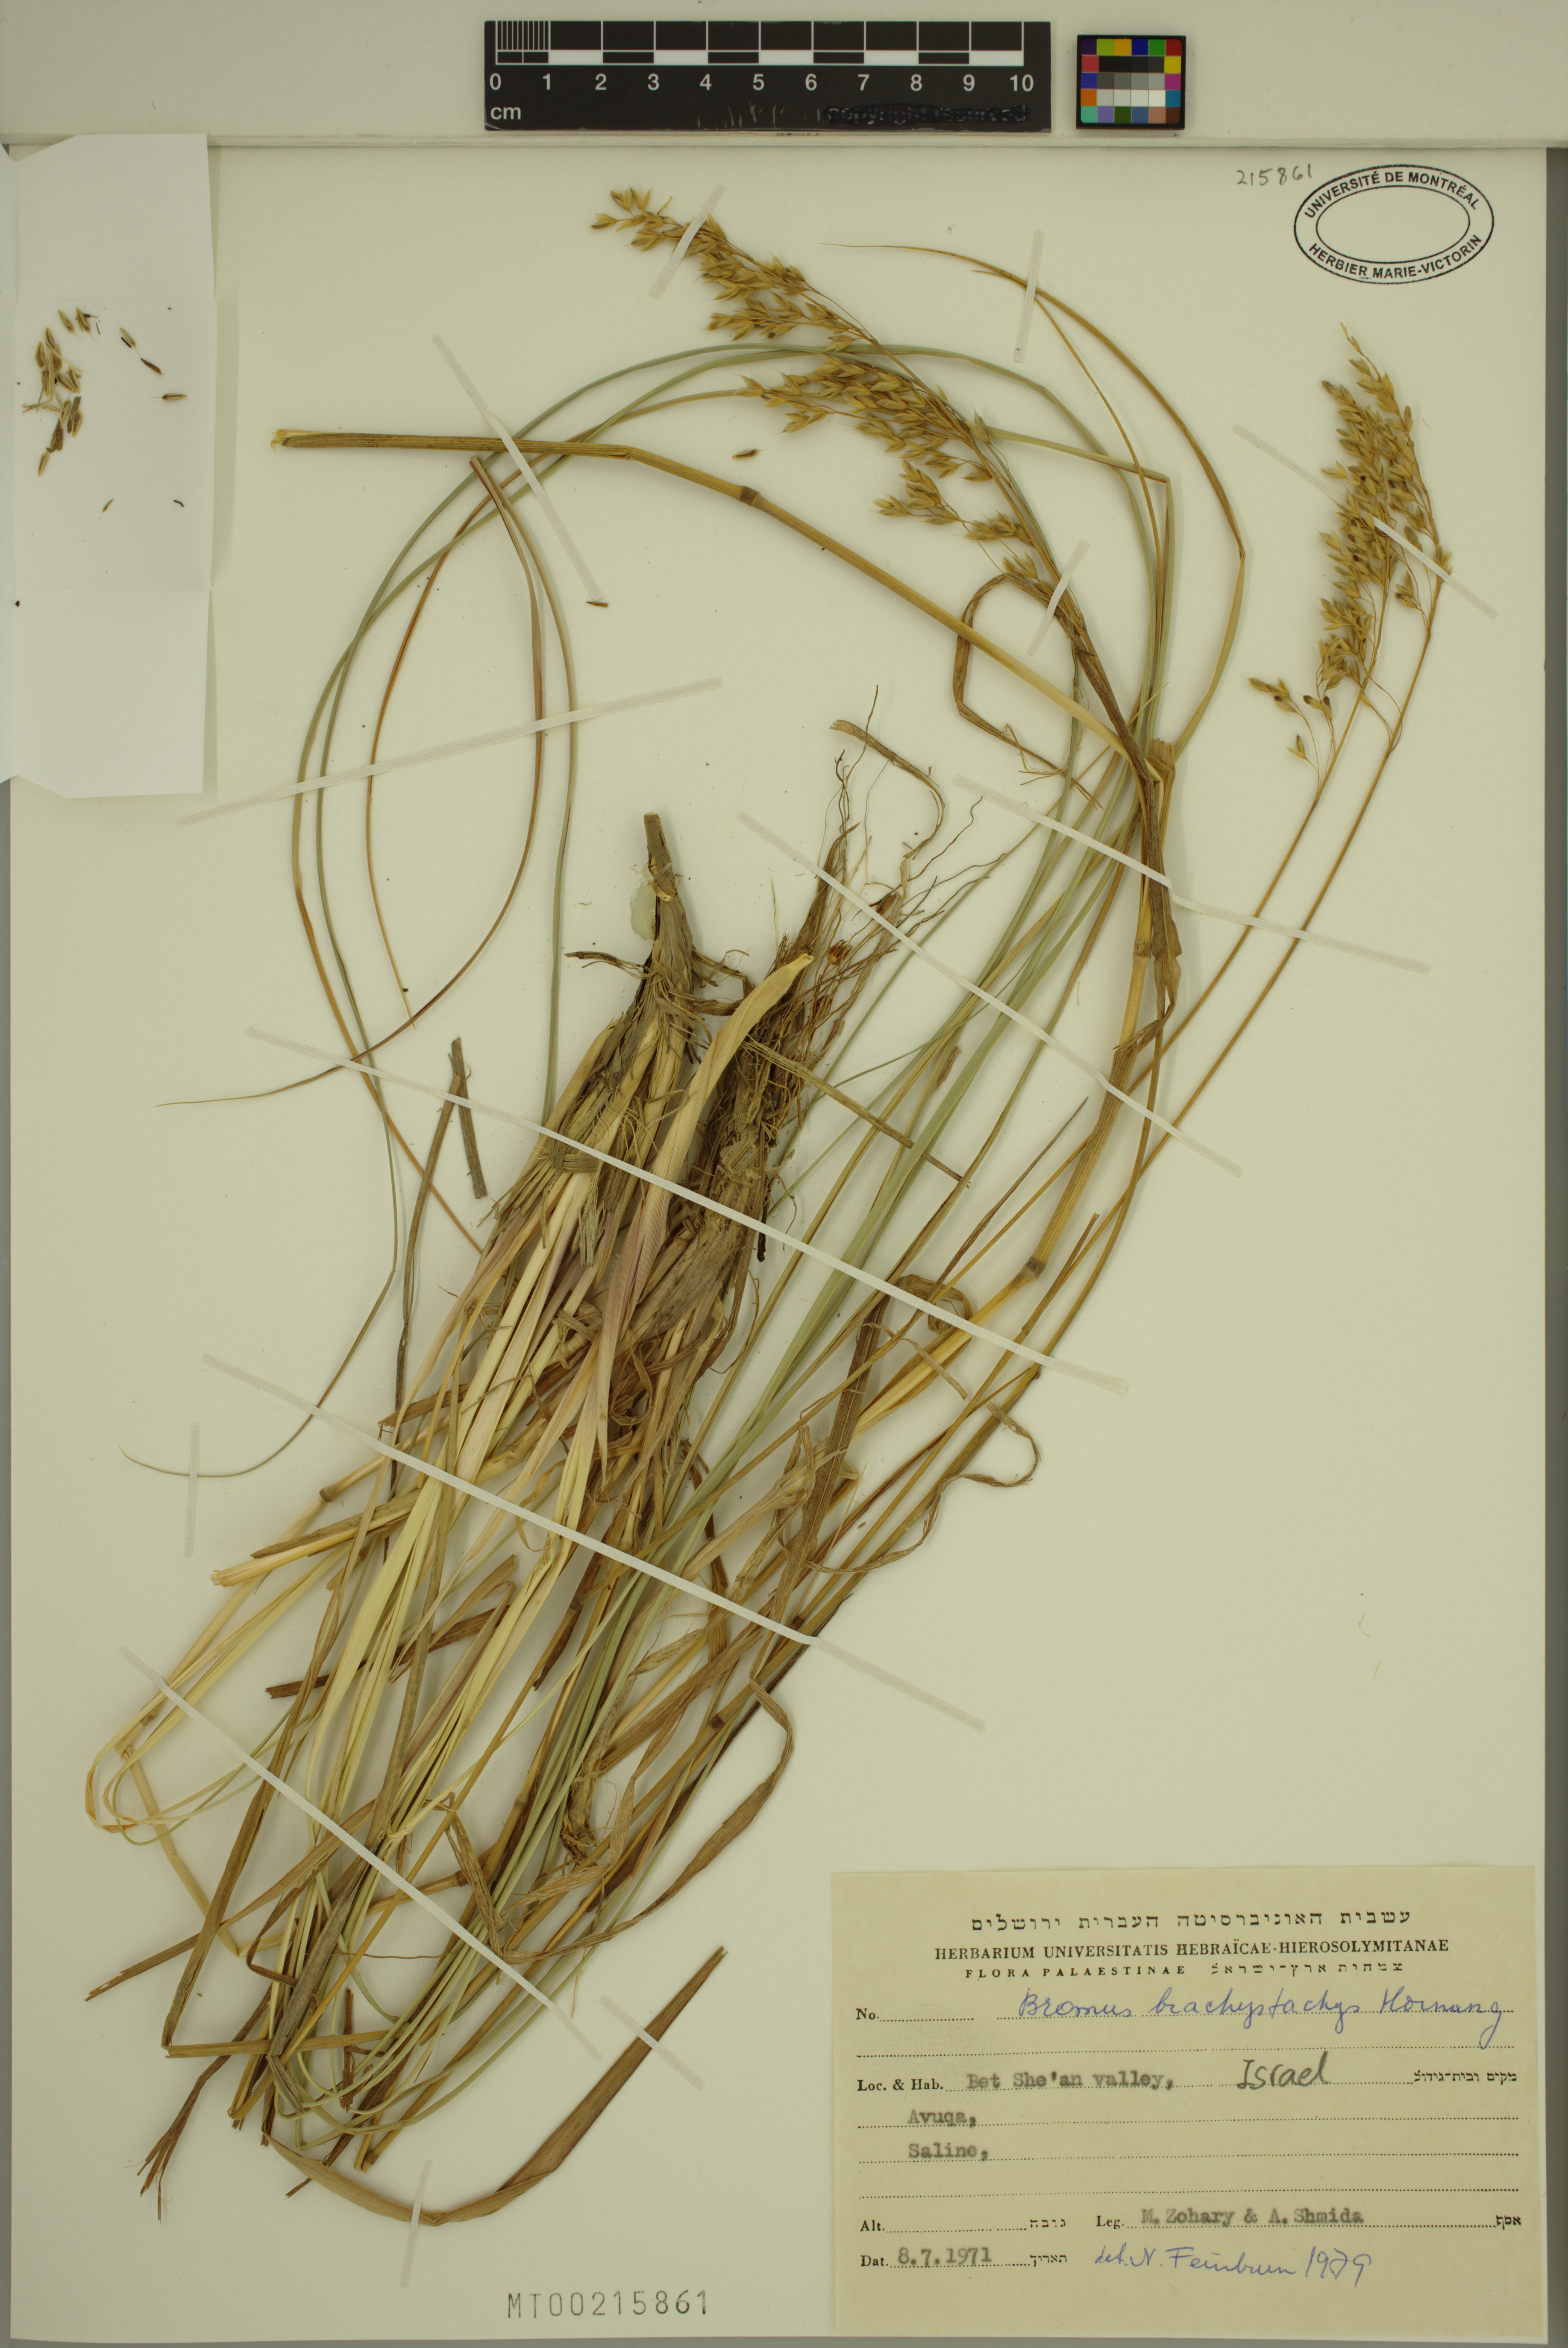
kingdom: Plantae
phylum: Tracheophyta
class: Liliopsida
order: Poales
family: Poaceae
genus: Bromus
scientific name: Bromus brachystachys
